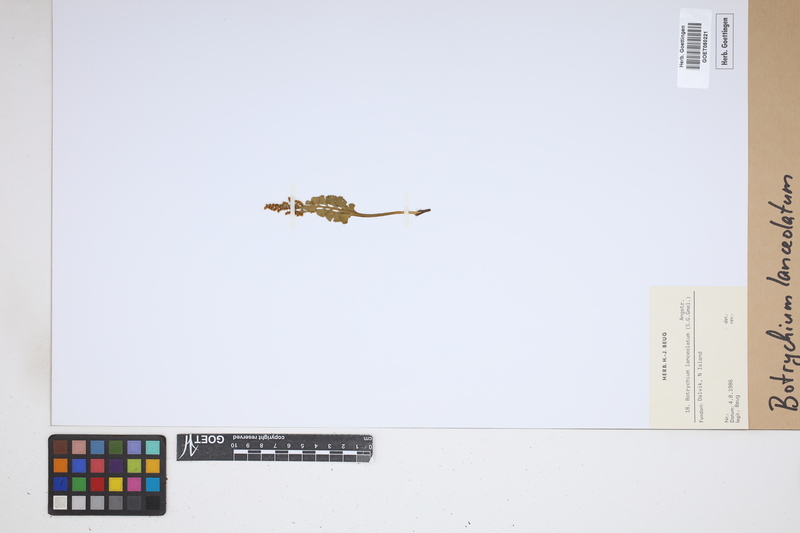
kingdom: Plantae
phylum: Tracheophyta
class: Polypodiopsida
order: Ophioglossales
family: Ophioglossaceae
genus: Botrychium
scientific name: Botrychium lanceolatum
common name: Lance-leaved moonwort
